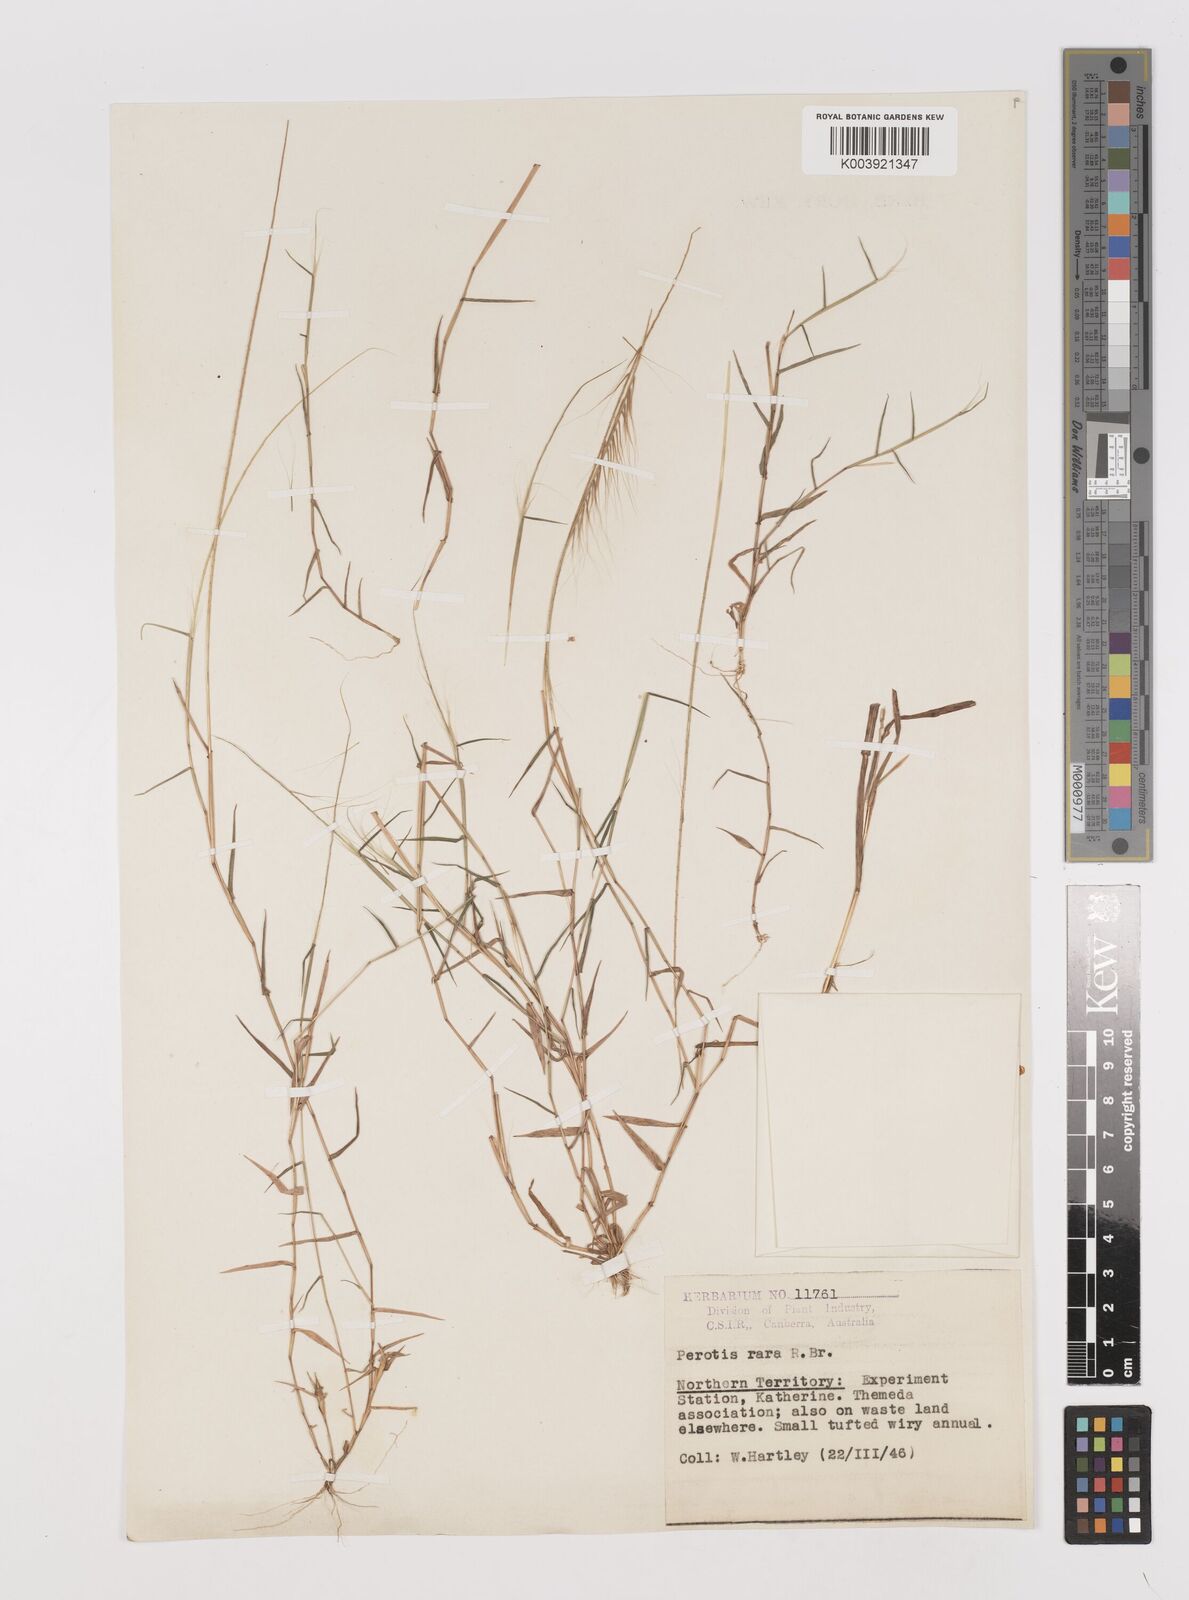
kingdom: Plantae
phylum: Tracheophyta
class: Liliopsida
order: Poales
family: Poaceae
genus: Perotis
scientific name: Perotis rara
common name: Comet grass
